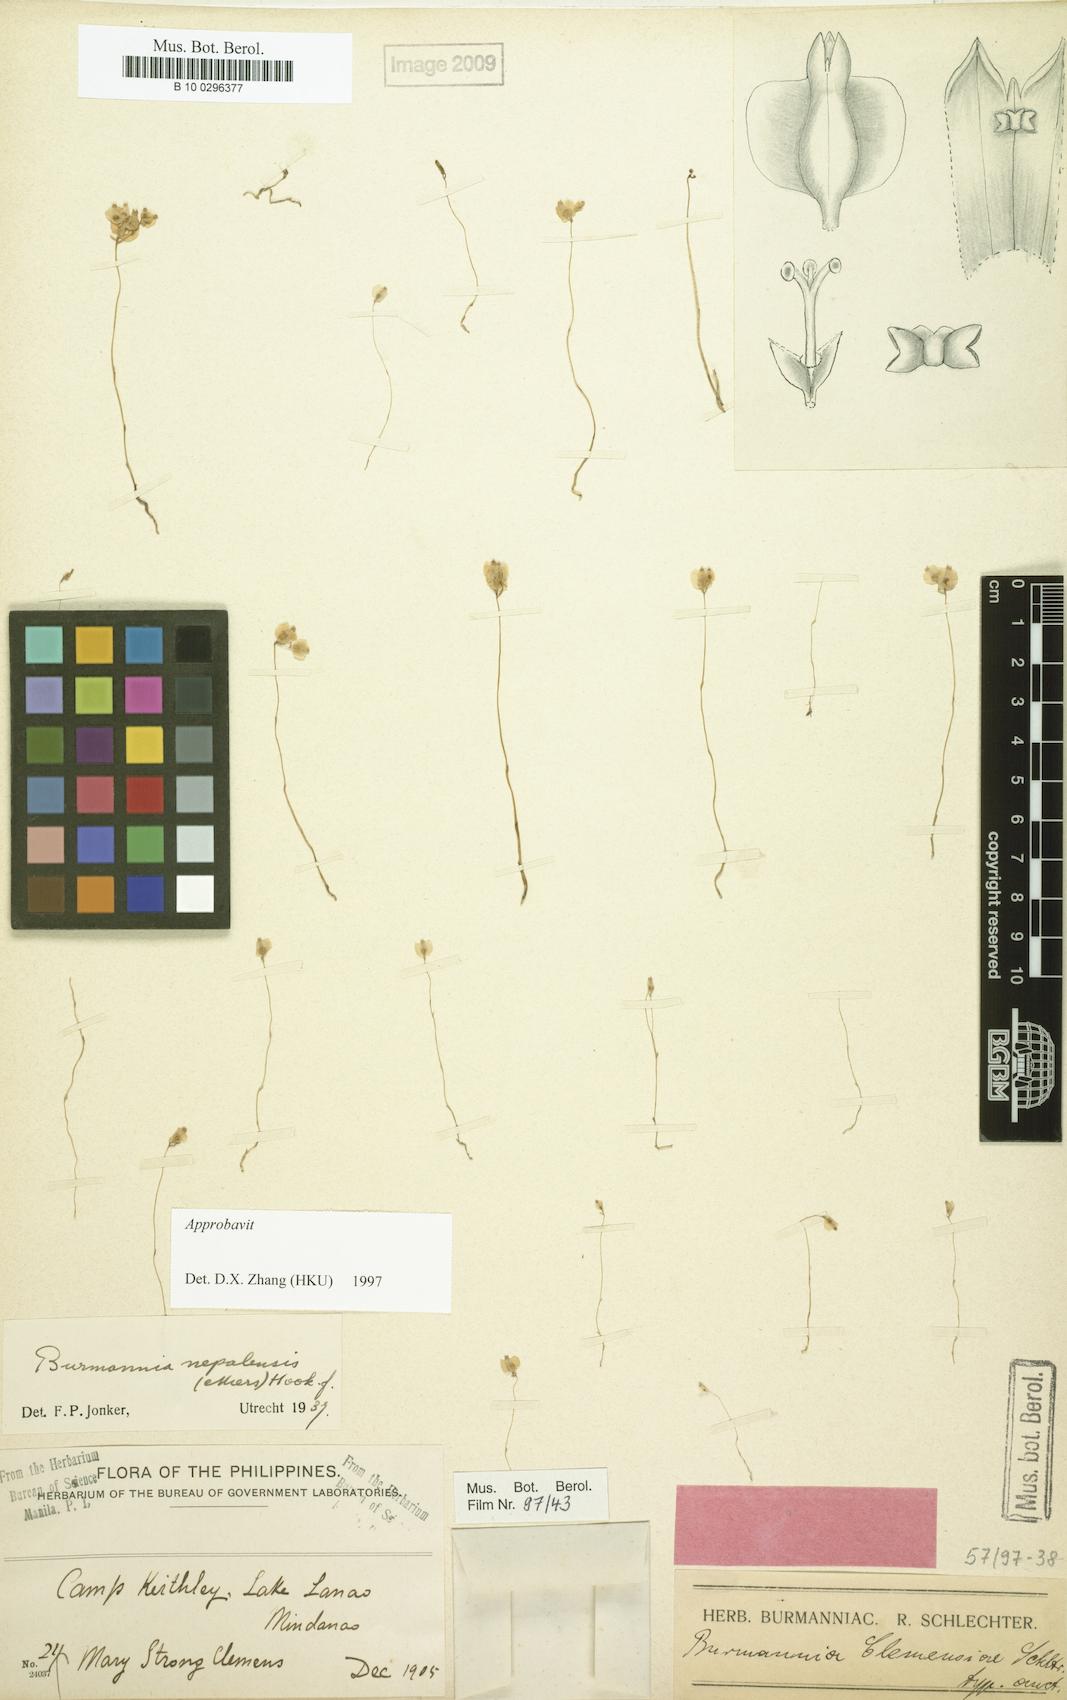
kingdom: Plantae
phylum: Tracheophyta
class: Liliopsida
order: Dioscoreales
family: Burmanniaceae
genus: Burmannia
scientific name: Burmannia nepalensis
